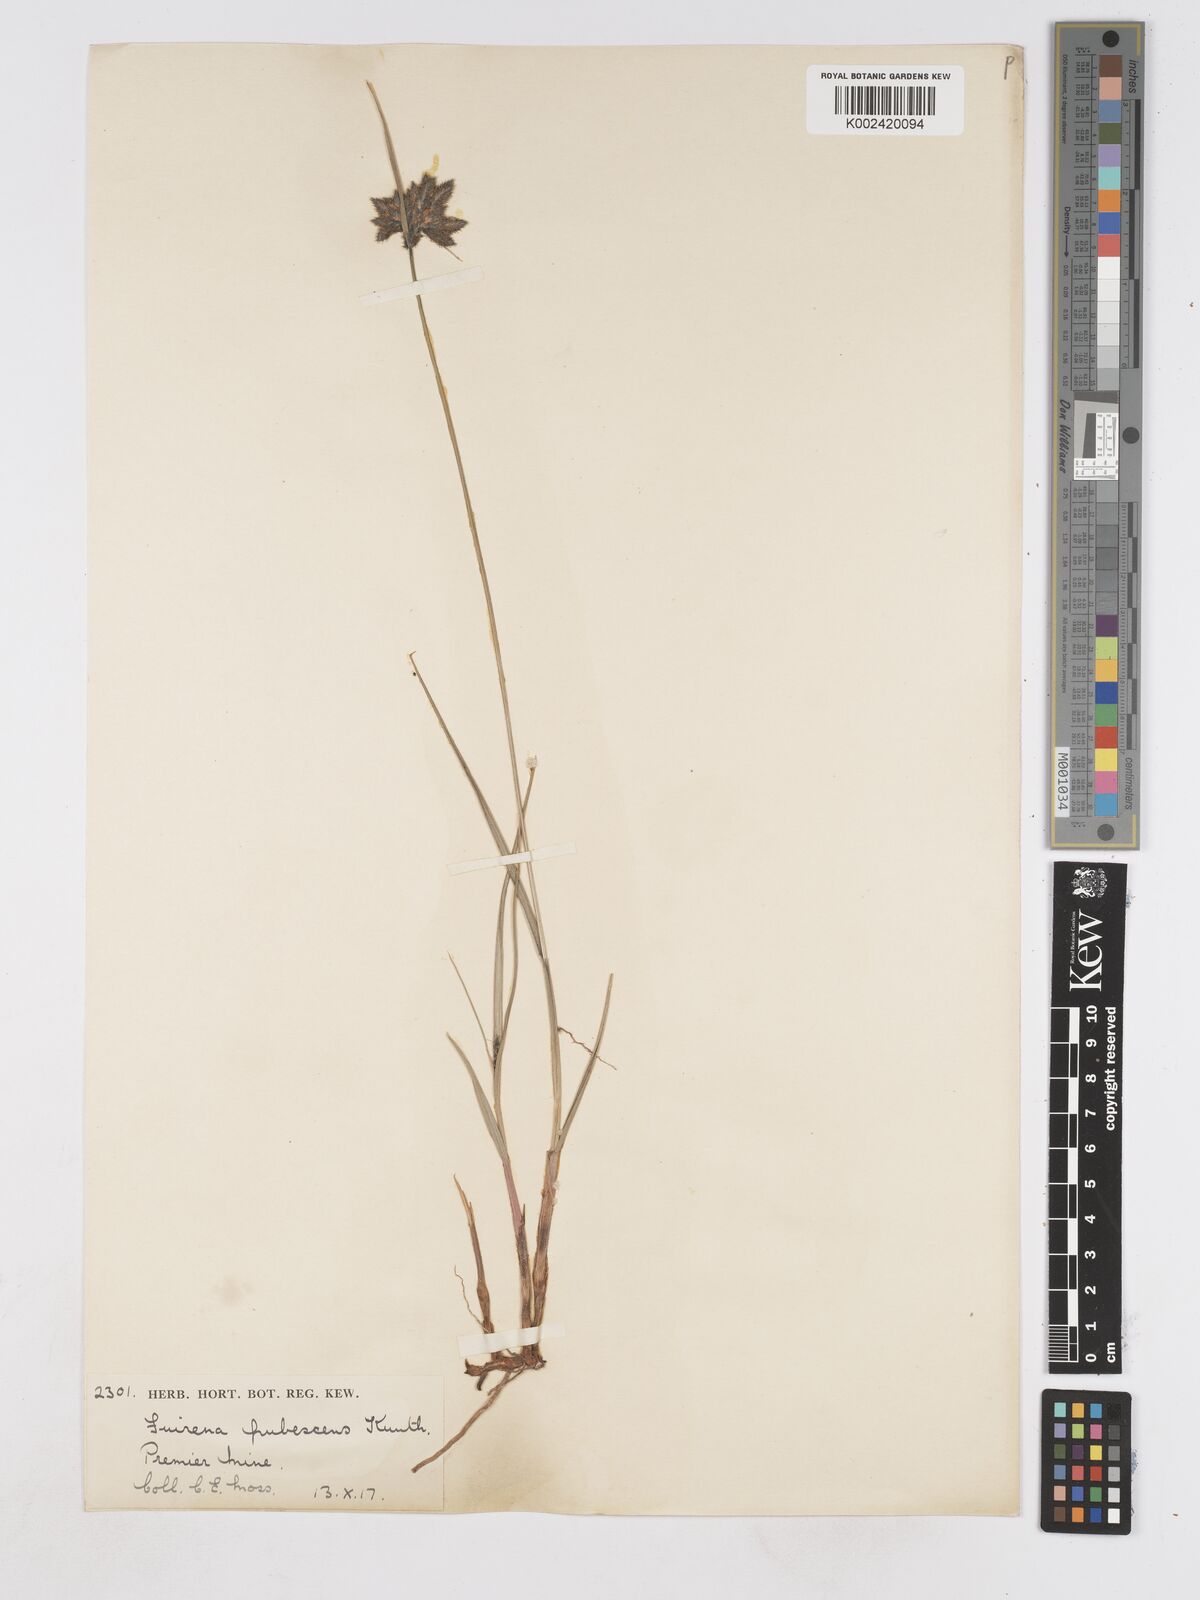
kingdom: Plantae
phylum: Tracheophyta
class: Liliopsida
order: Poales
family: Cyperaceae
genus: Fuirena
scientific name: Fuirena pubescens
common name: Hairy sedge
